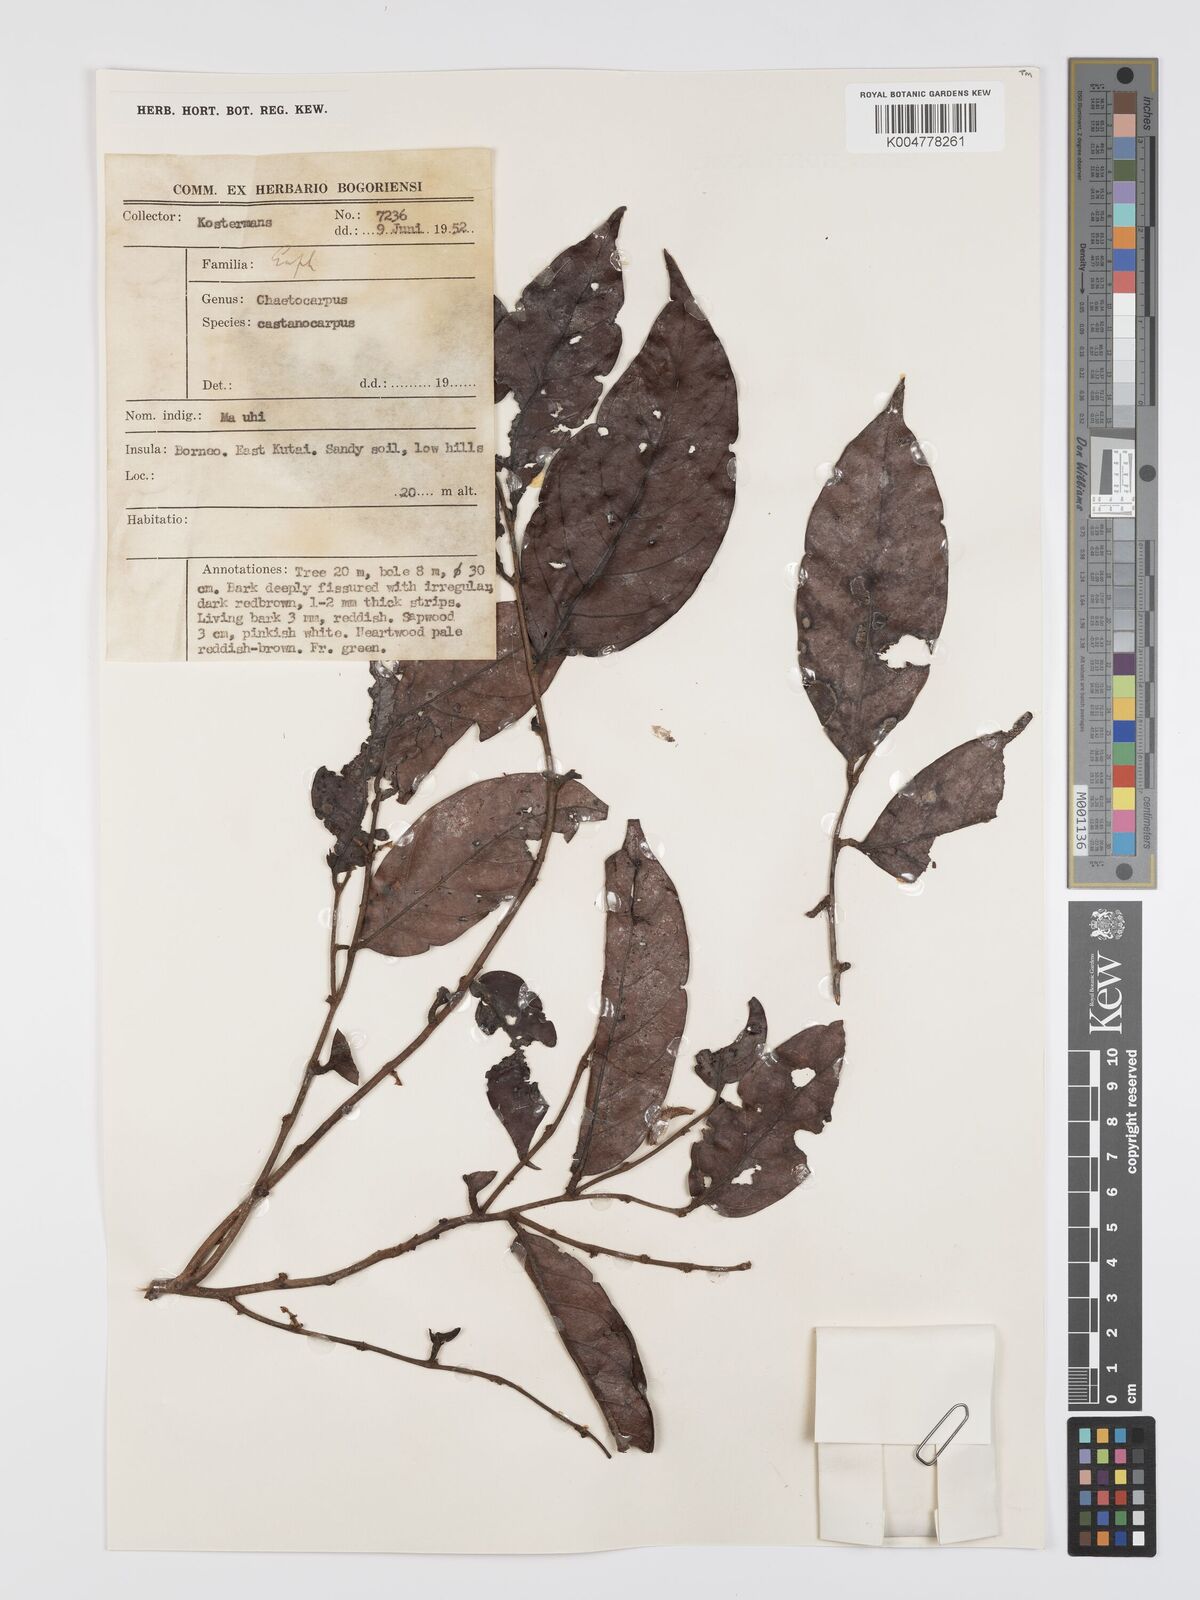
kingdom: Plantae
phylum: Tracheophyta
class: Magnoliopsida
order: Malpighiales
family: Peraceae
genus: Chaetocarpus
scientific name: Chaetocarpus castanocarpus
